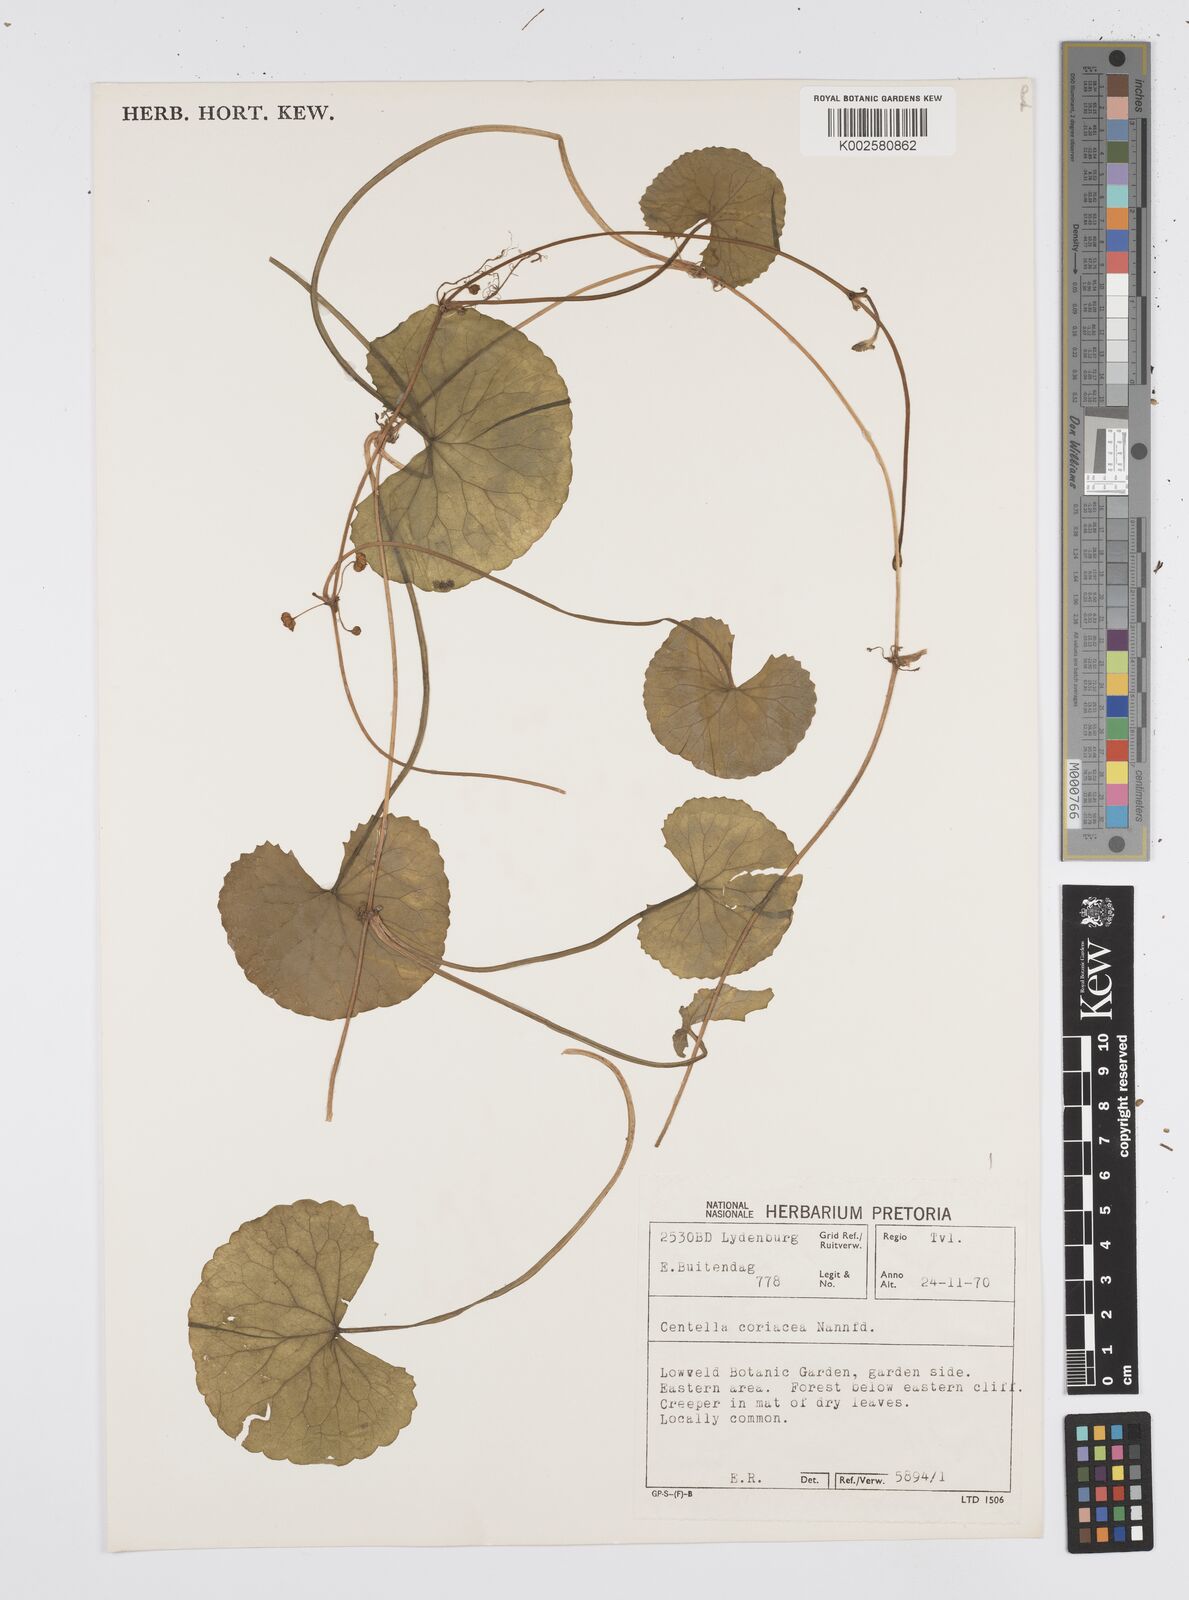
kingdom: Plantae
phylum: Tracheophyta
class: Magnoliopsida
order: Apiales
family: Apiaceae
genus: Centella
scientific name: Centella coriacea
